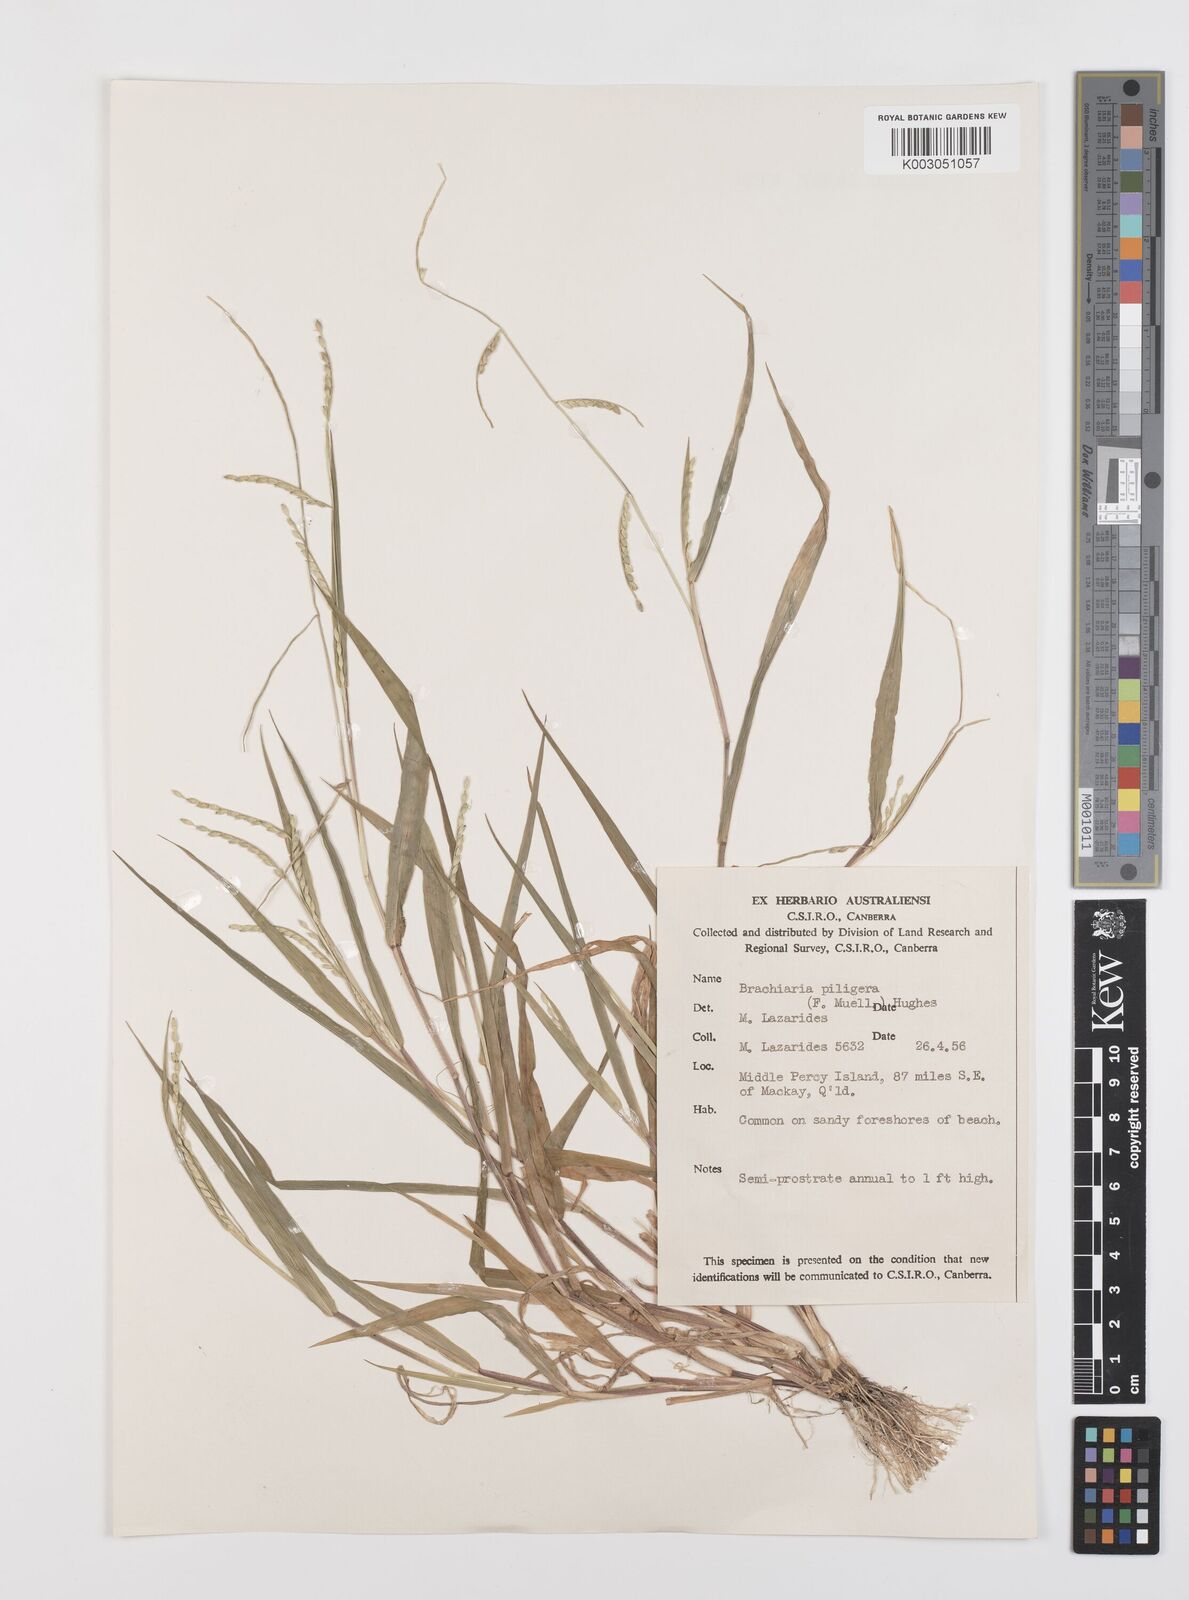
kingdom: Plantae
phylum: Tracheophyta
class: Liliopsida
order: Poales
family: Poaceae
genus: Urochloa
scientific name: Urochloa piligera
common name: Wattle signalgrass
